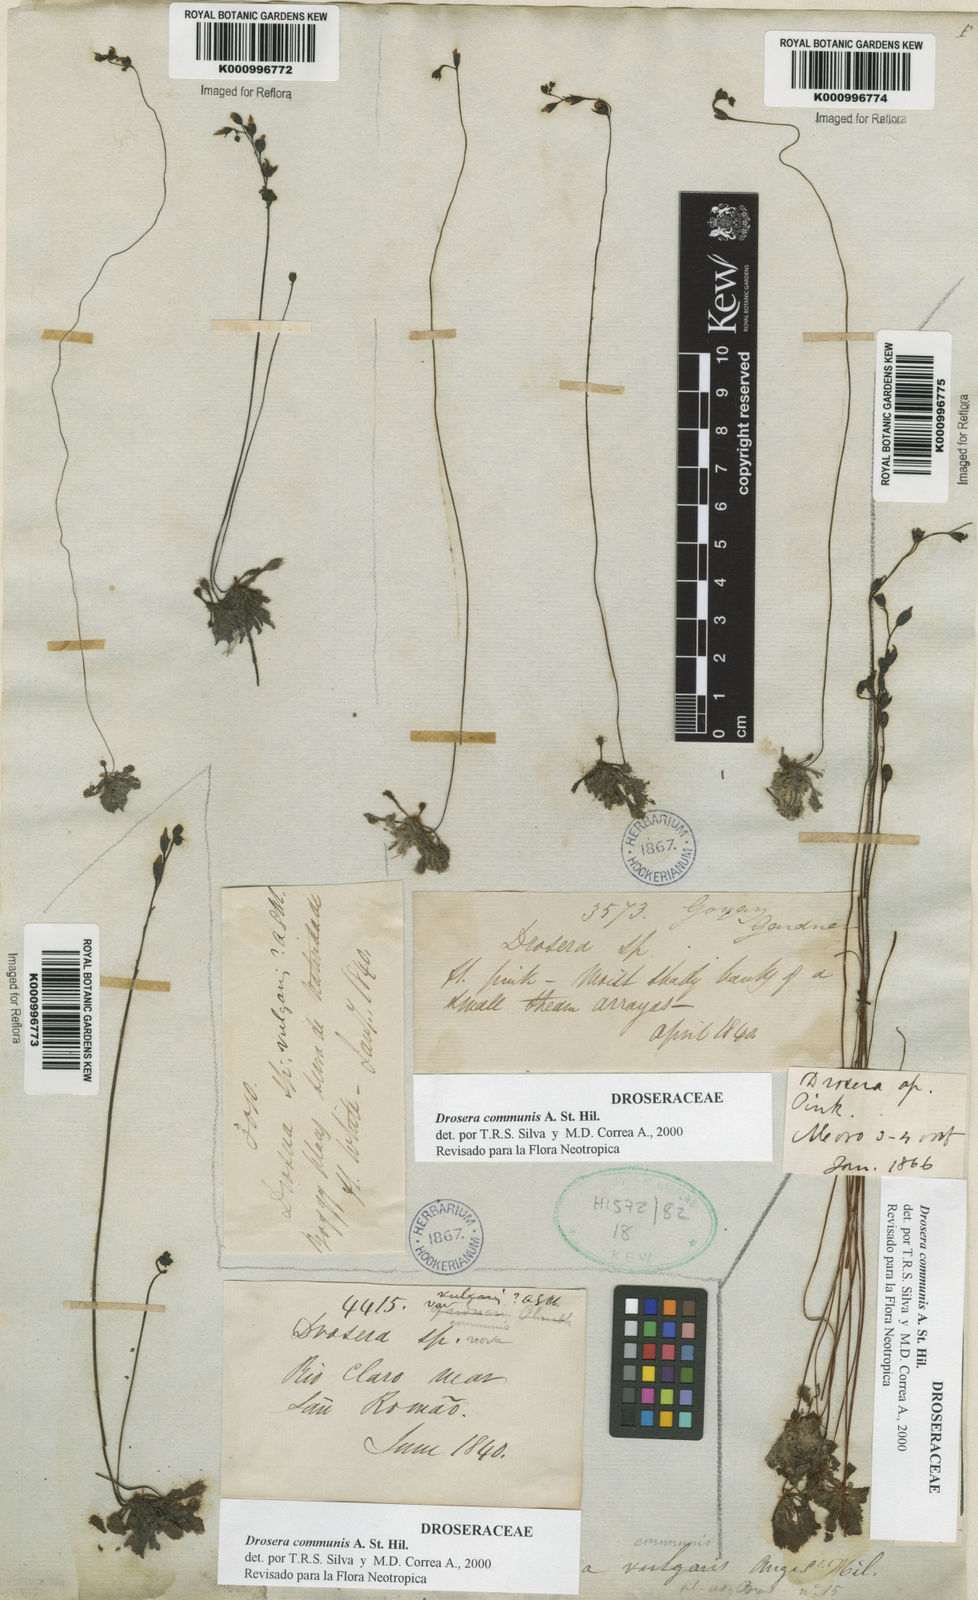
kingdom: Plantae
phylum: Tracheophyta
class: Magnoliopsida
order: Caryophyllales
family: Droseraceae
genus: Drosera
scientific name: Drosera communis
